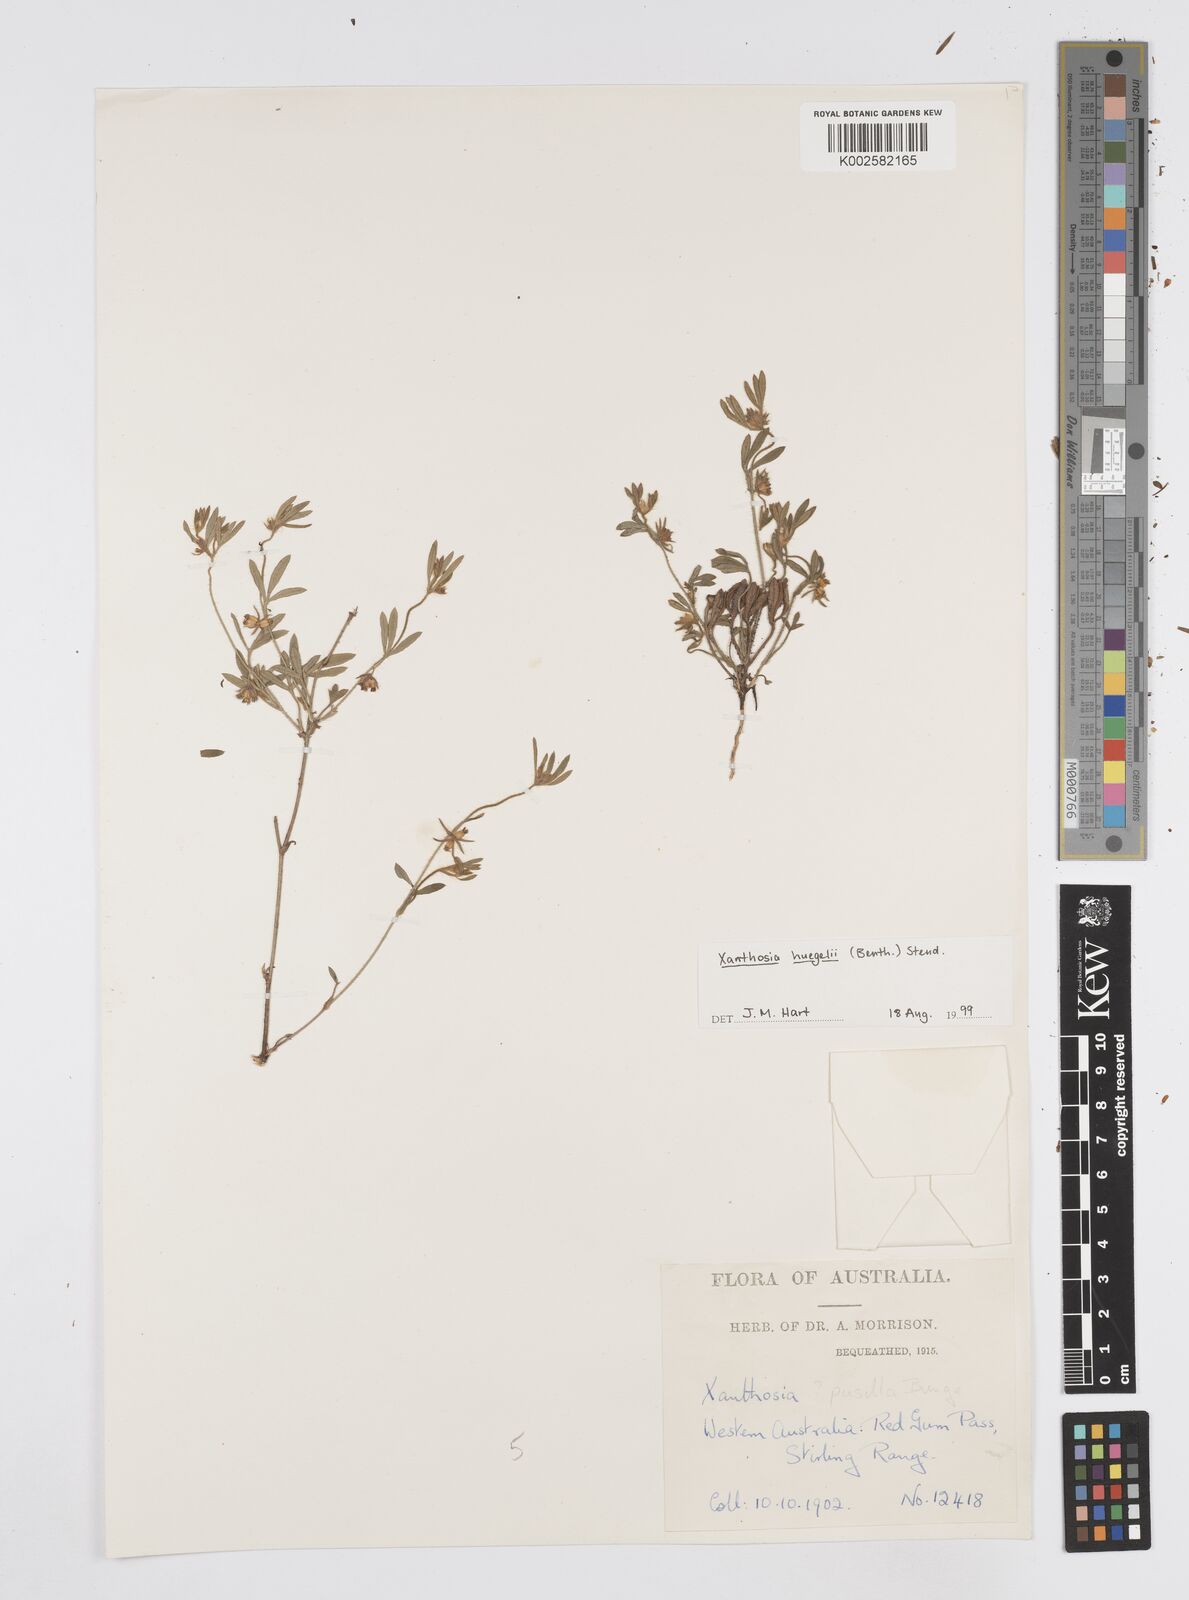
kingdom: Plantae
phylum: Tracheophyta
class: Magnoliopsida
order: Apiales
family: Apiaceae
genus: Xanthosia
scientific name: Xanthosia huegelii
